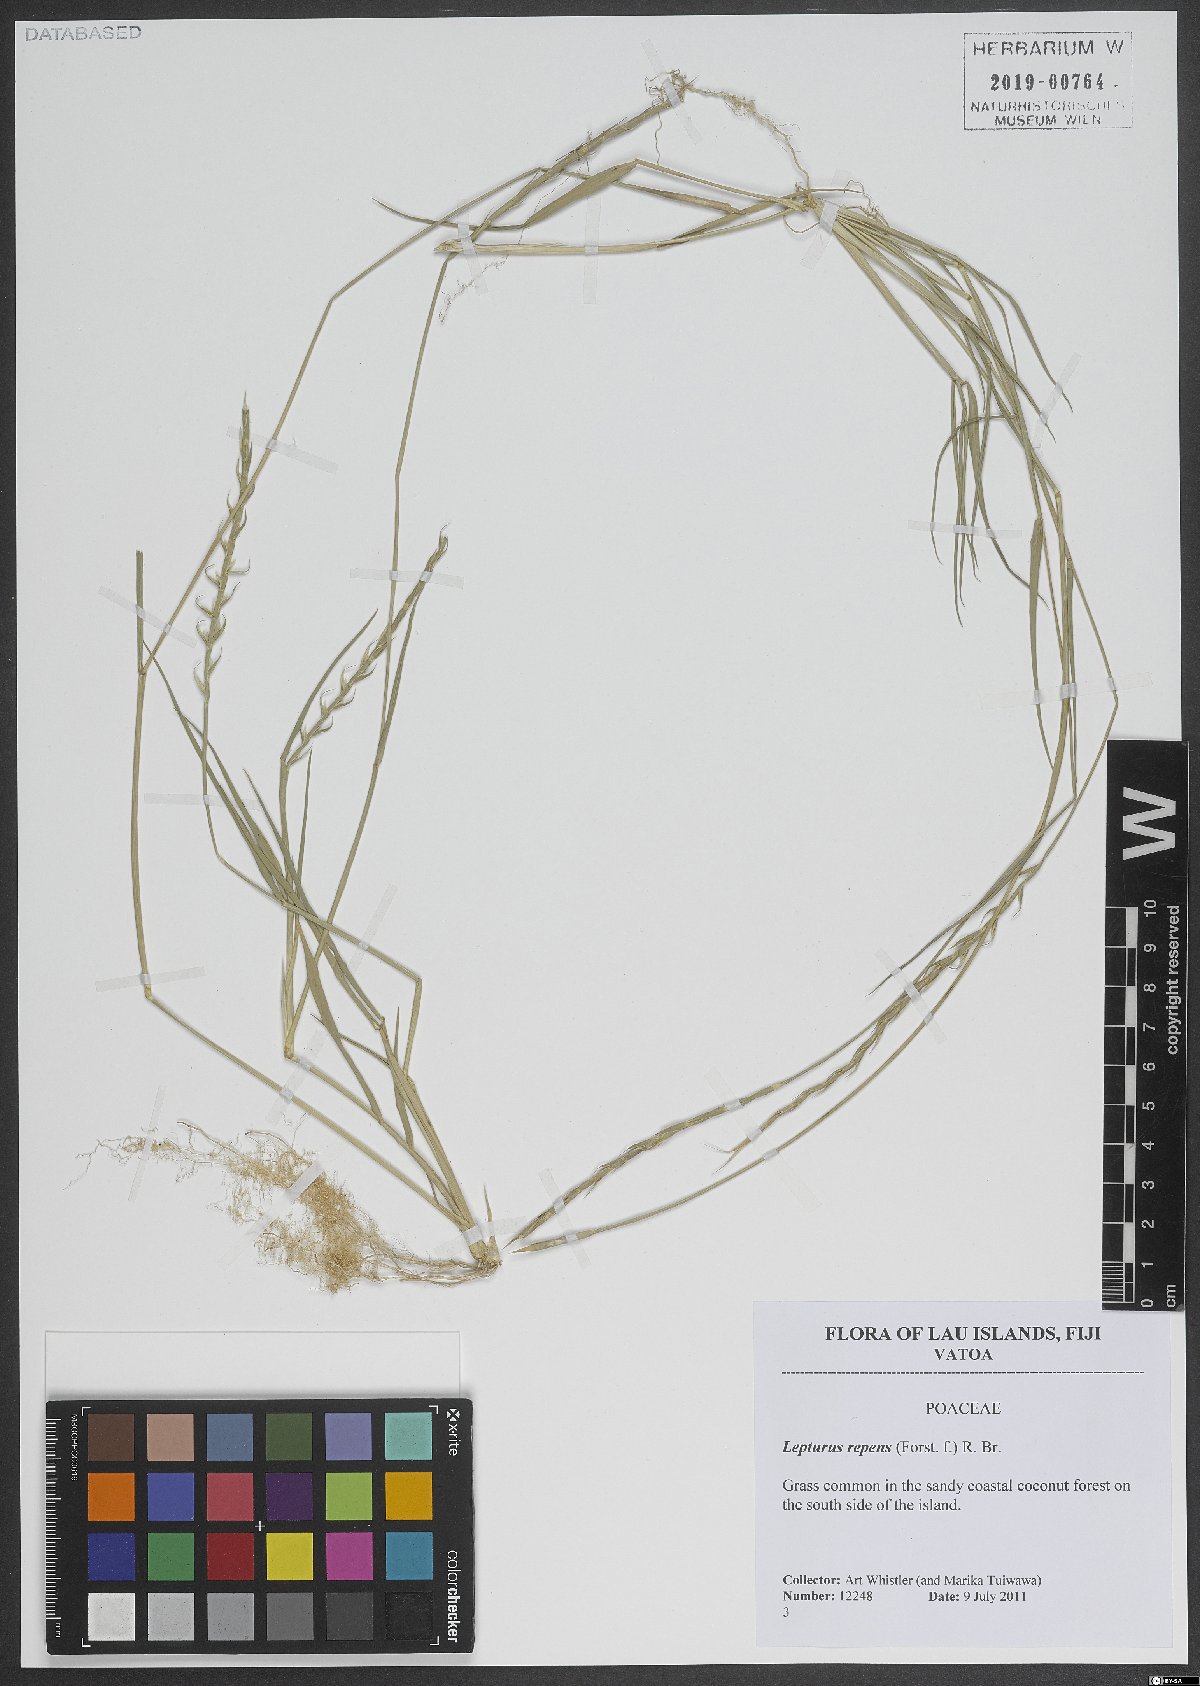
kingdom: Plantae
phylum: Tracheophyta
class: Liliopsida
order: Poales
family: Poaceae
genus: Lepturus
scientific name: Lepturus repens
